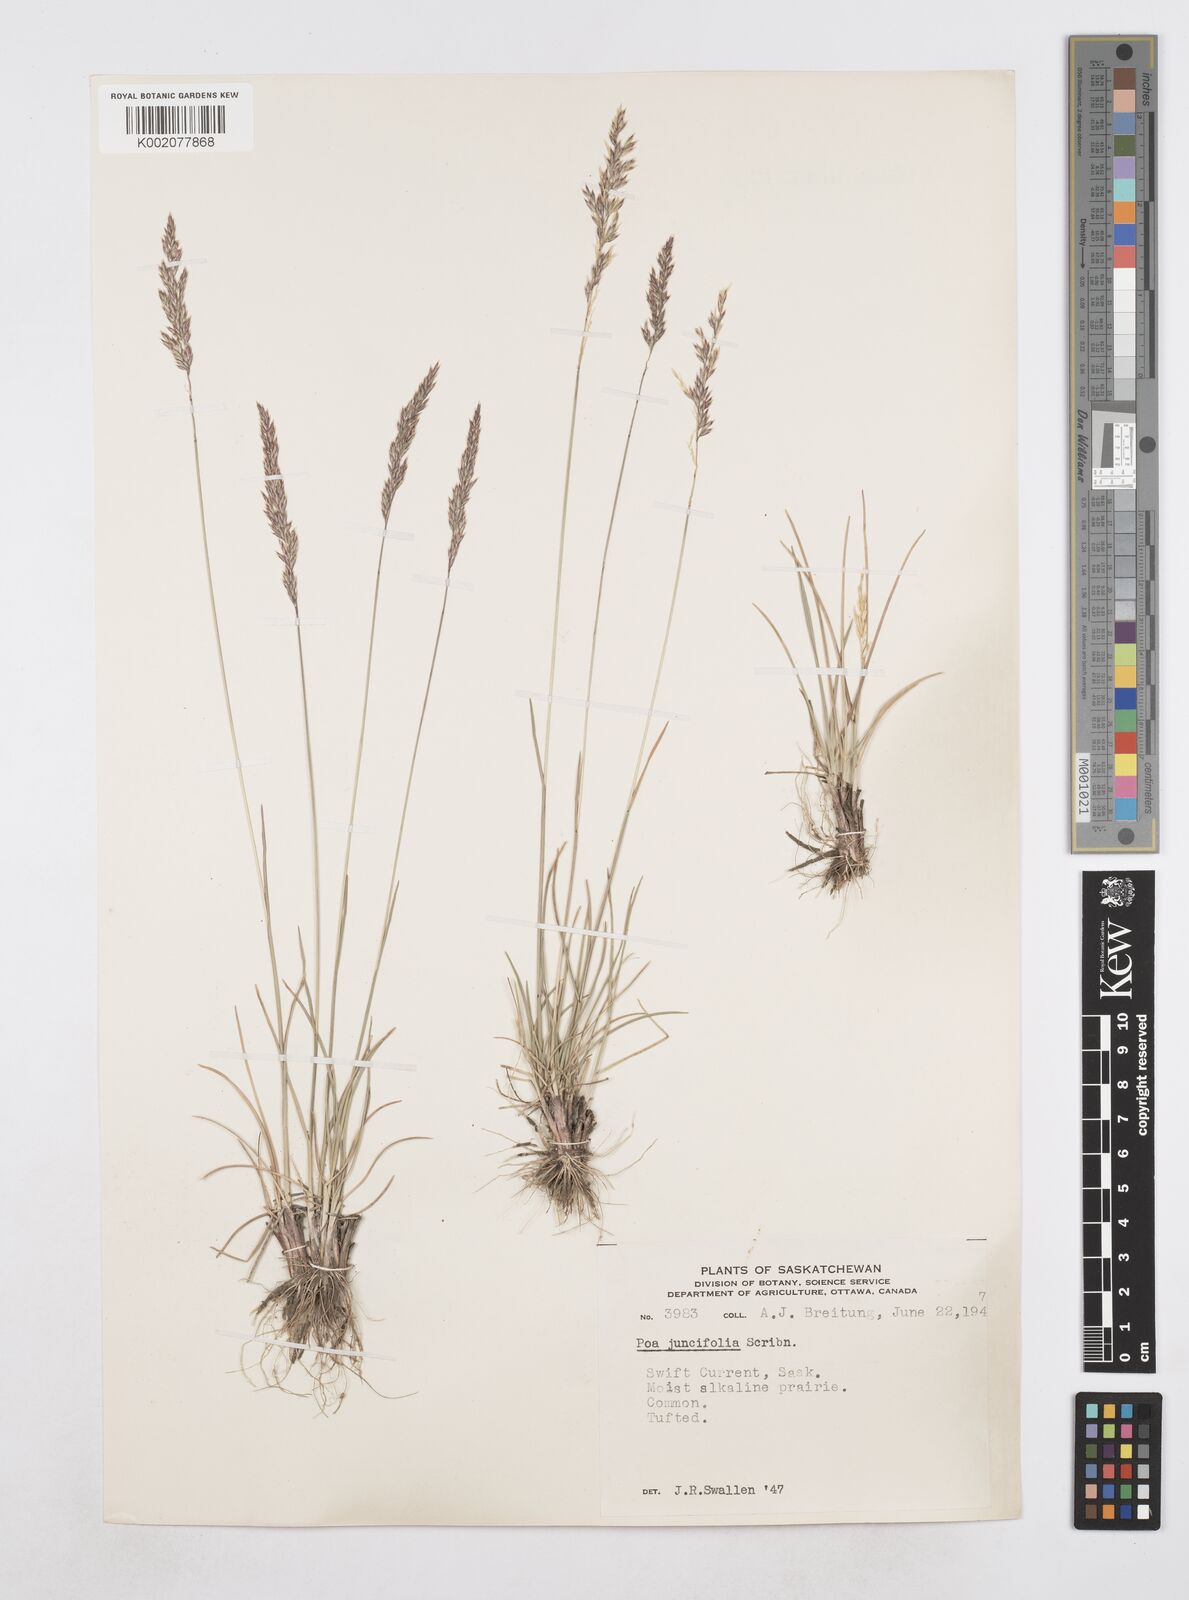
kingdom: Plantae
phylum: Tracheophyta
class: Liliopsida
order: Poales
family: Poaceae
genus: Poa
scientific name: Poa secunda
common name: Sandberg bluegrass
